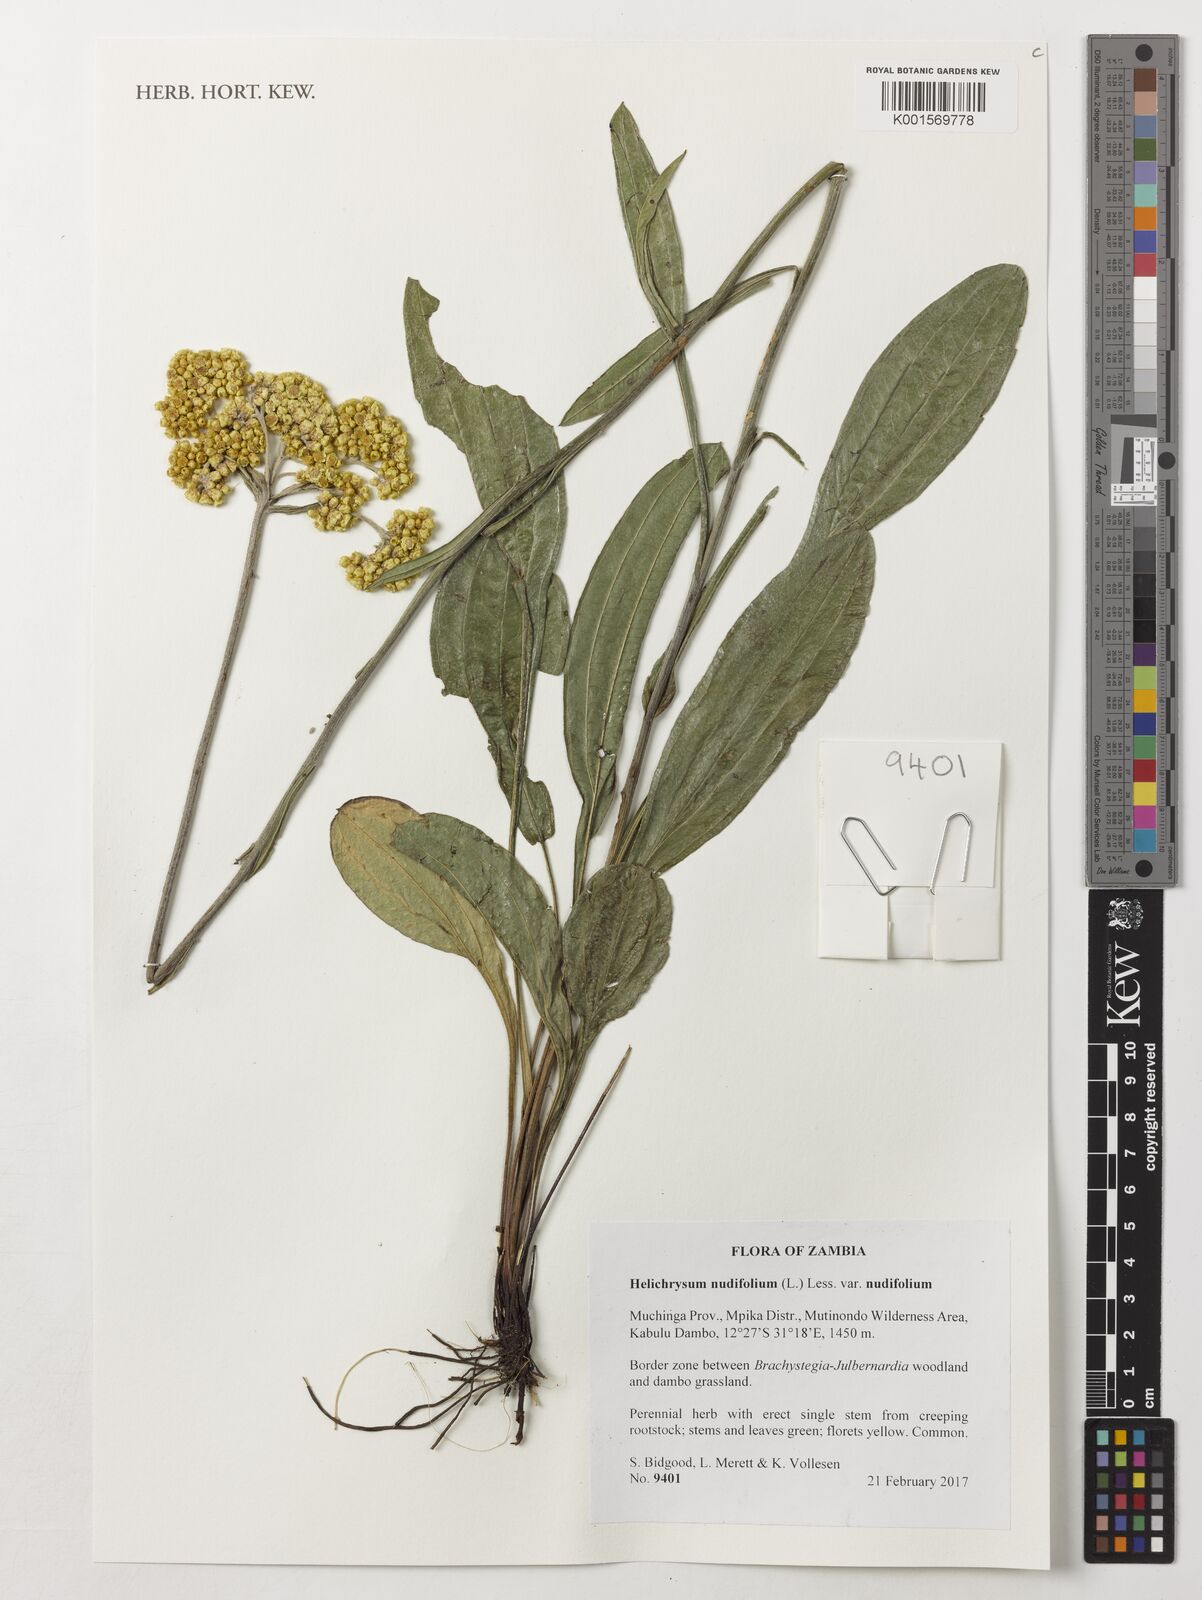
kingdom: Plantae
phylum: Tracheophyta
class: Magnoliopsida
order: Asterales
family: Asteraceae
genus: Helichrysum
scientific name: Helichrysum nudifolium
